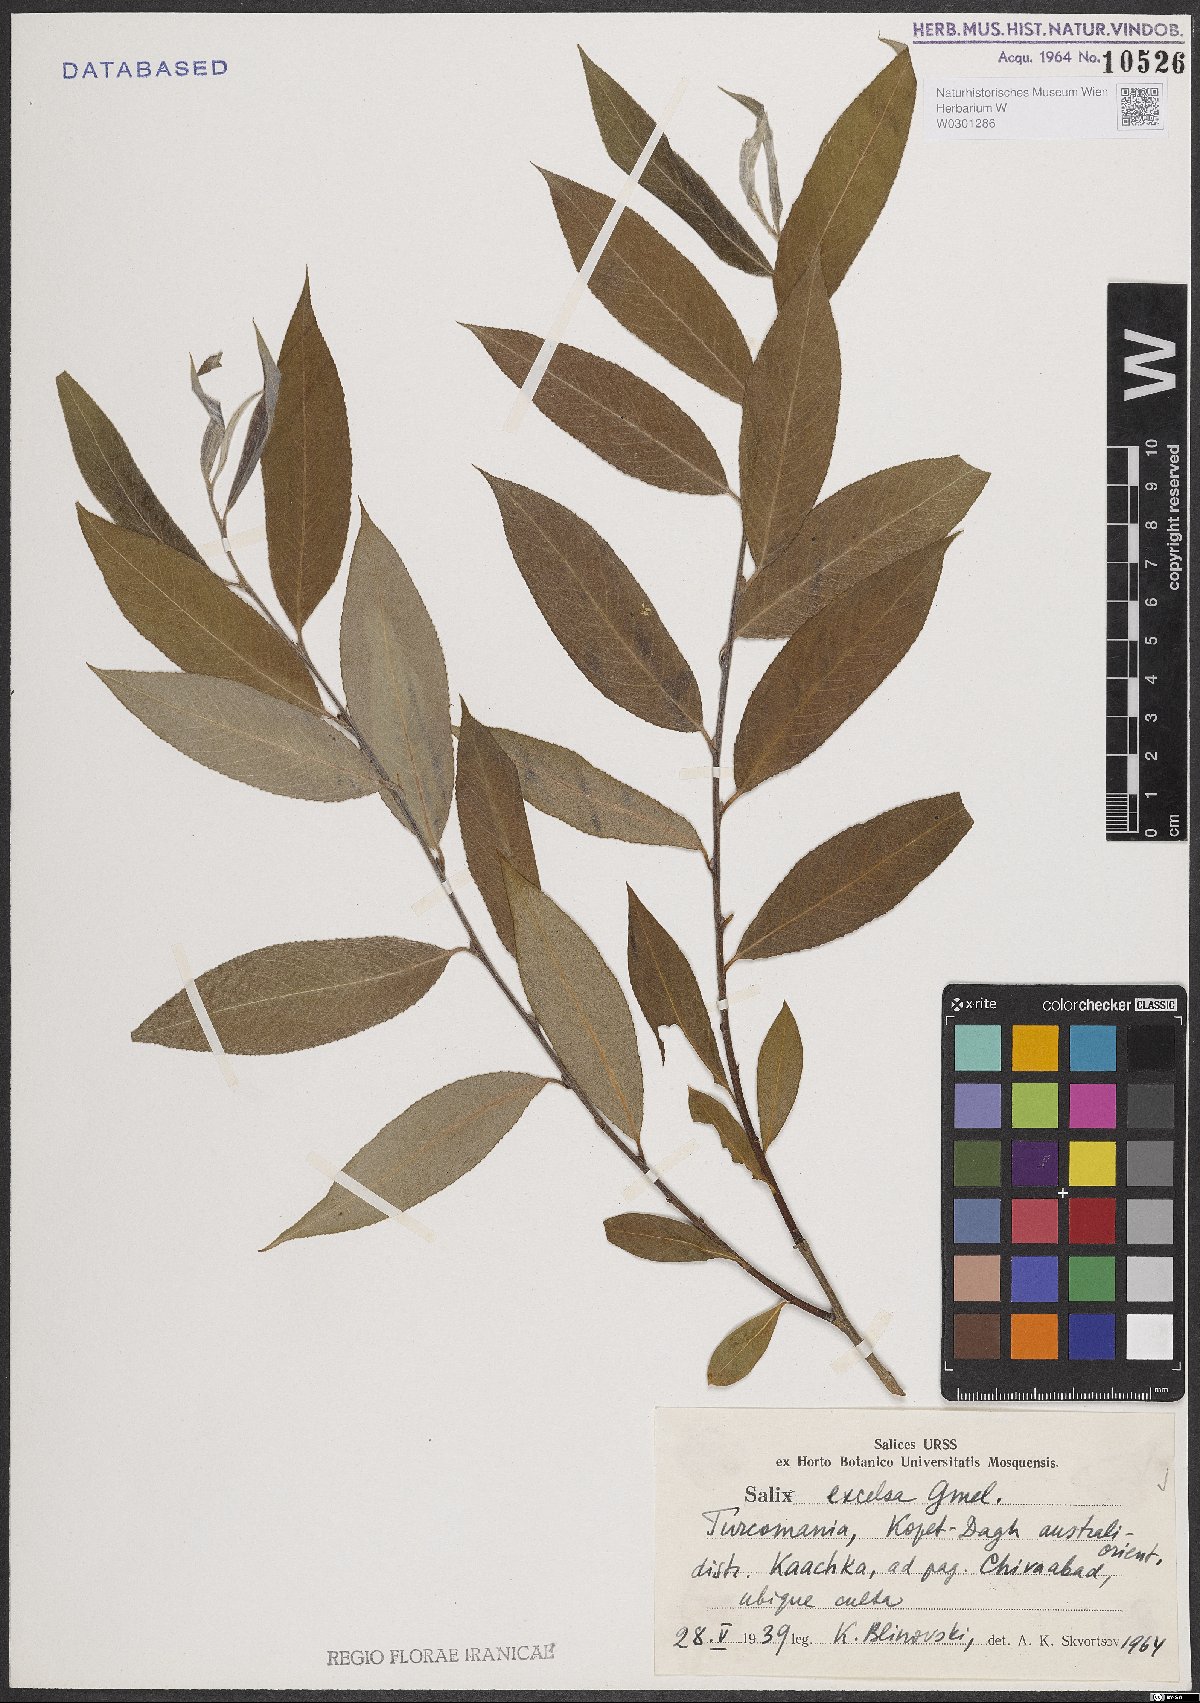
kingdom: Plantae
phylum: Tracheophyta
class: Magnoliopsida
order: Malpighiales
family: Salicaceae
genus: Salix
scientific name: Salix excelsa
